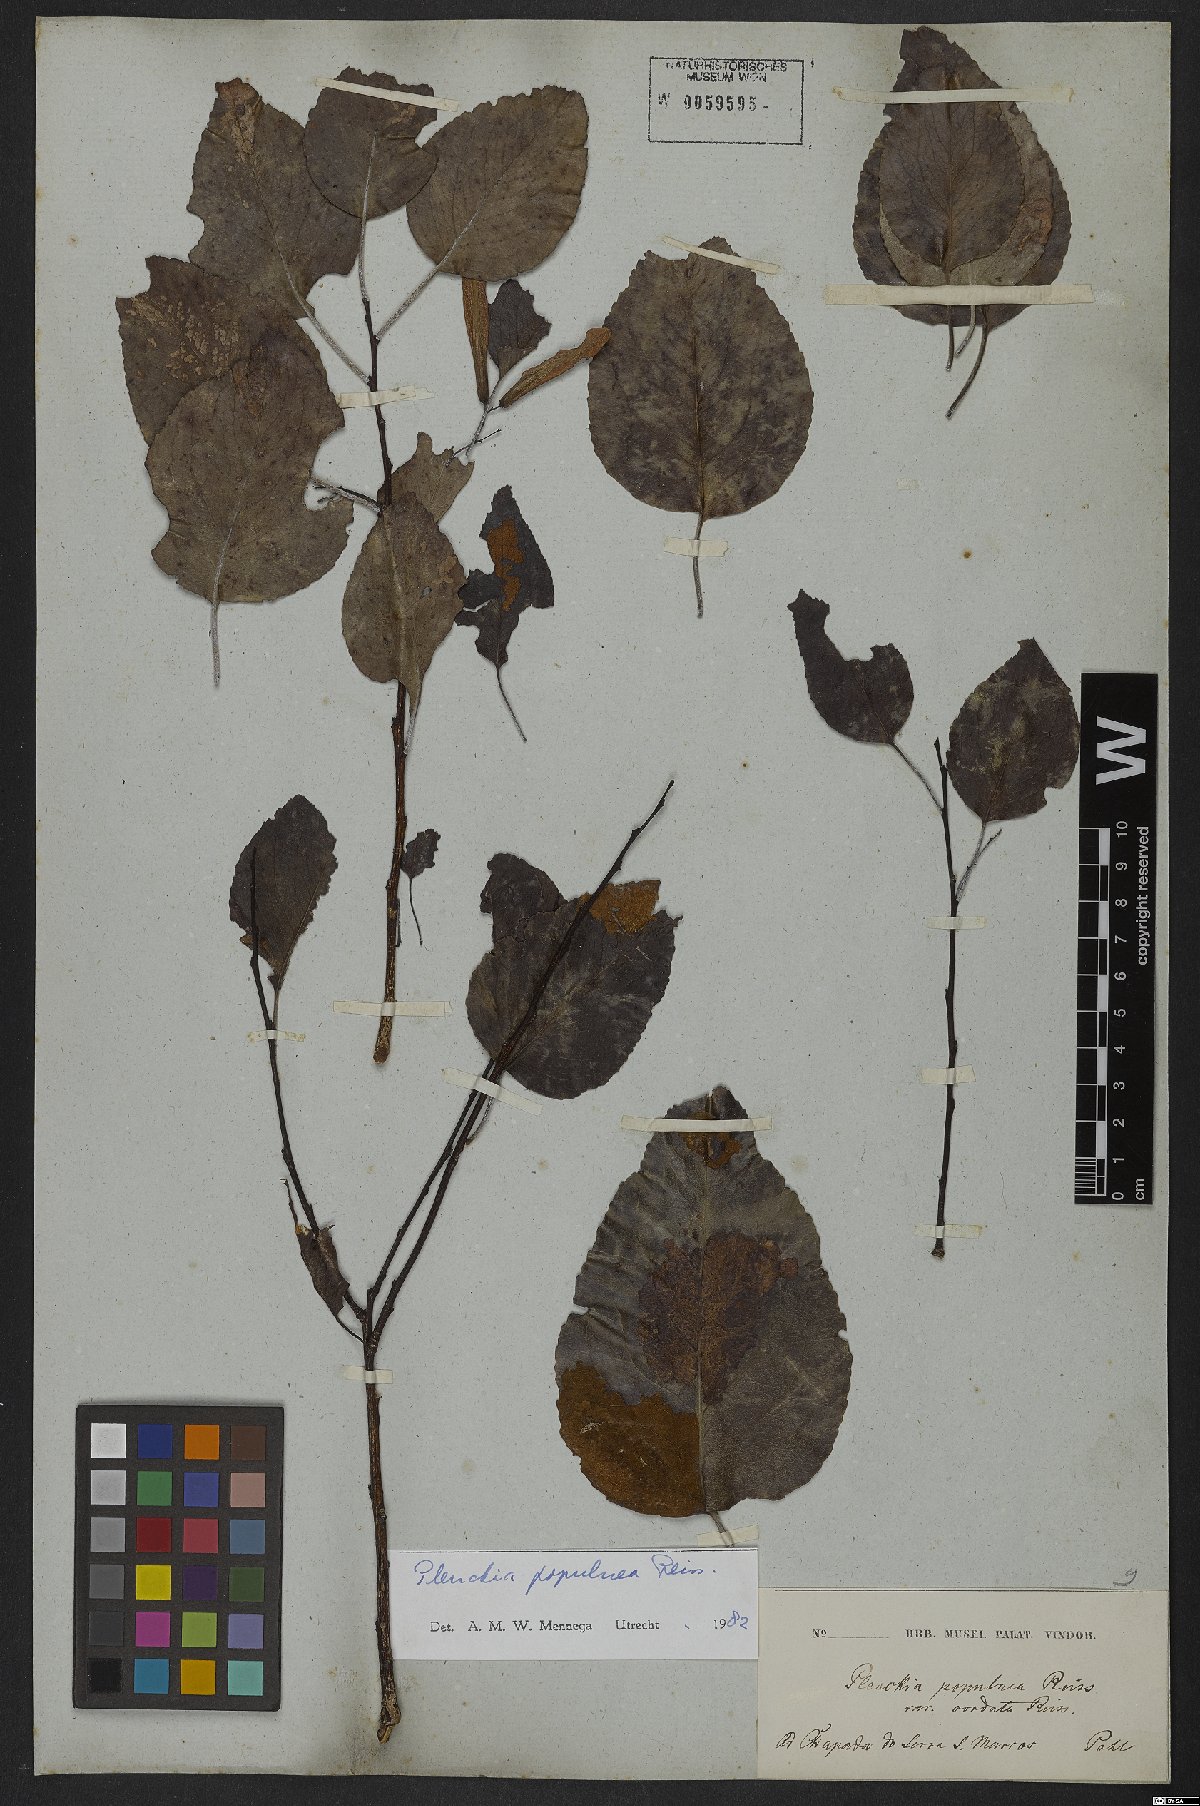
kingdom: Plantae
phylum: Tracheophyta
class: Magnoliopsida
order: Celastrales
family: Celastraceae
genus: Plenckia
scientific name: Plenckia populnea
